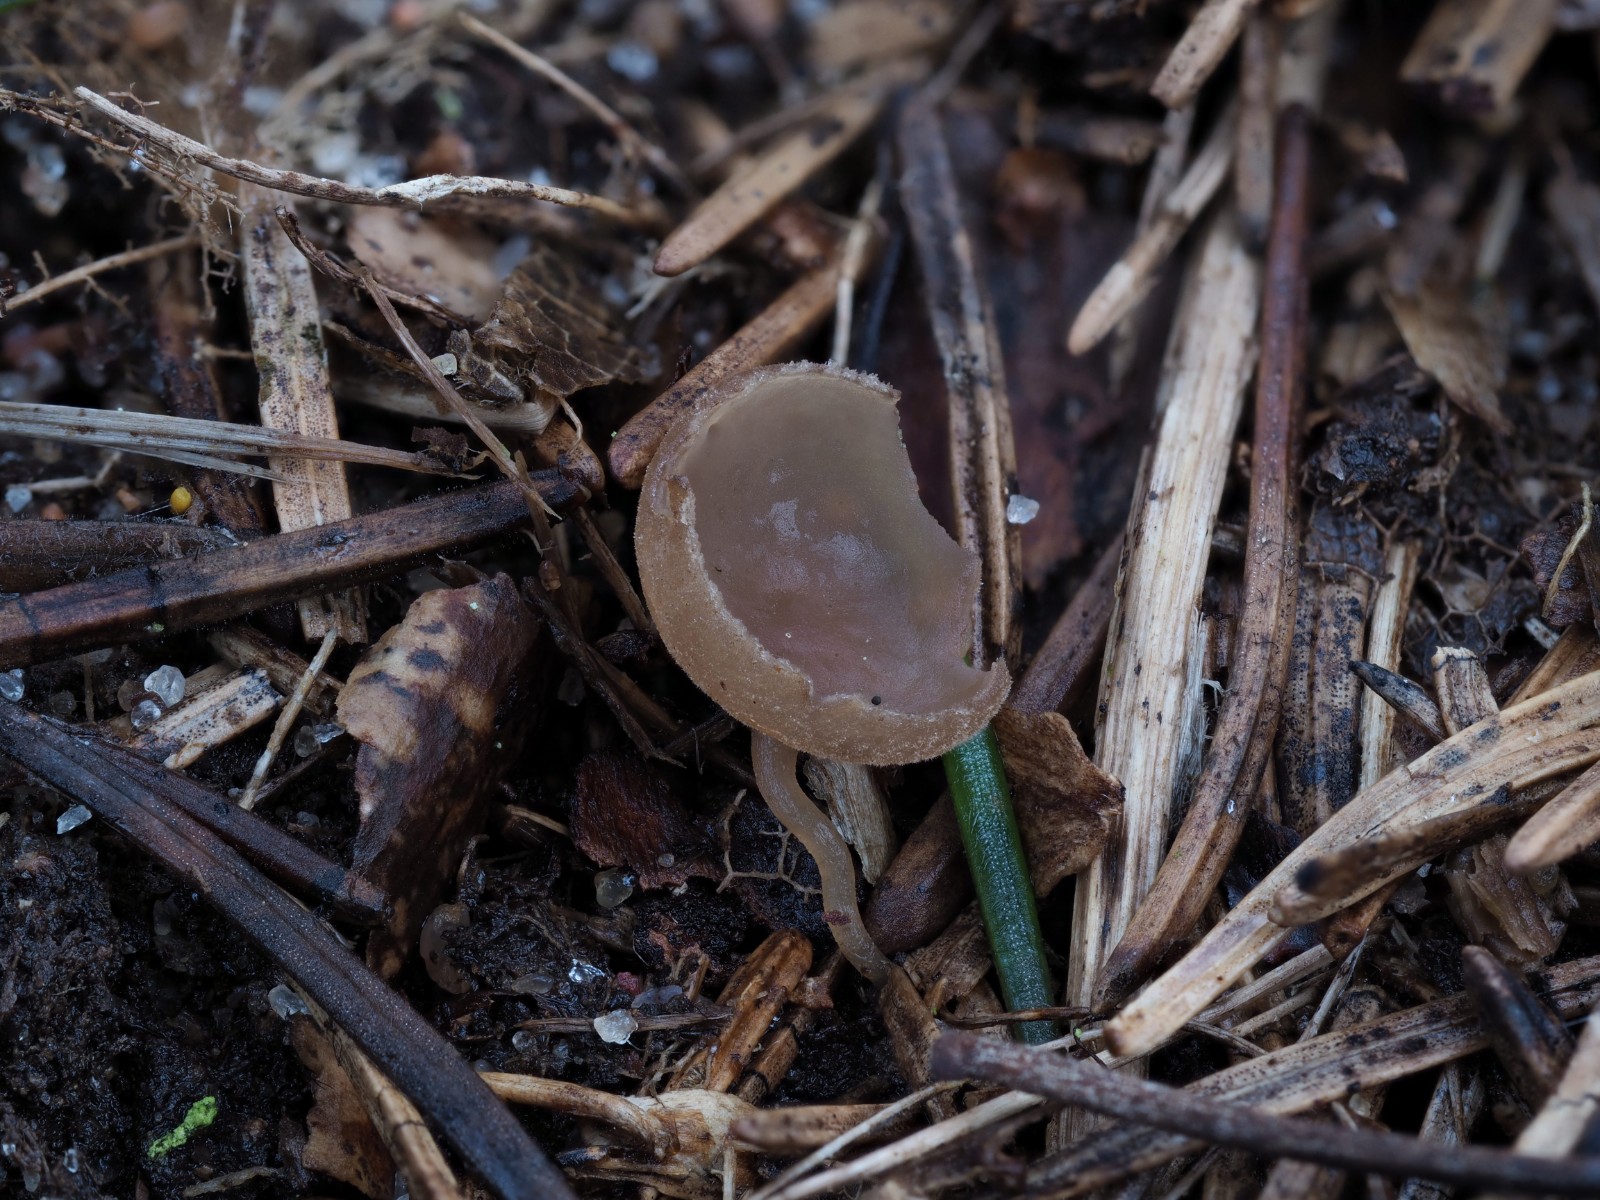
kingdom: Fungi
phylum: Ascomycota
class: Leotiomycetes
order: Helotiales
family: Sclerotiniaceae
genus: Ciboria
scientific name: Ciboria
